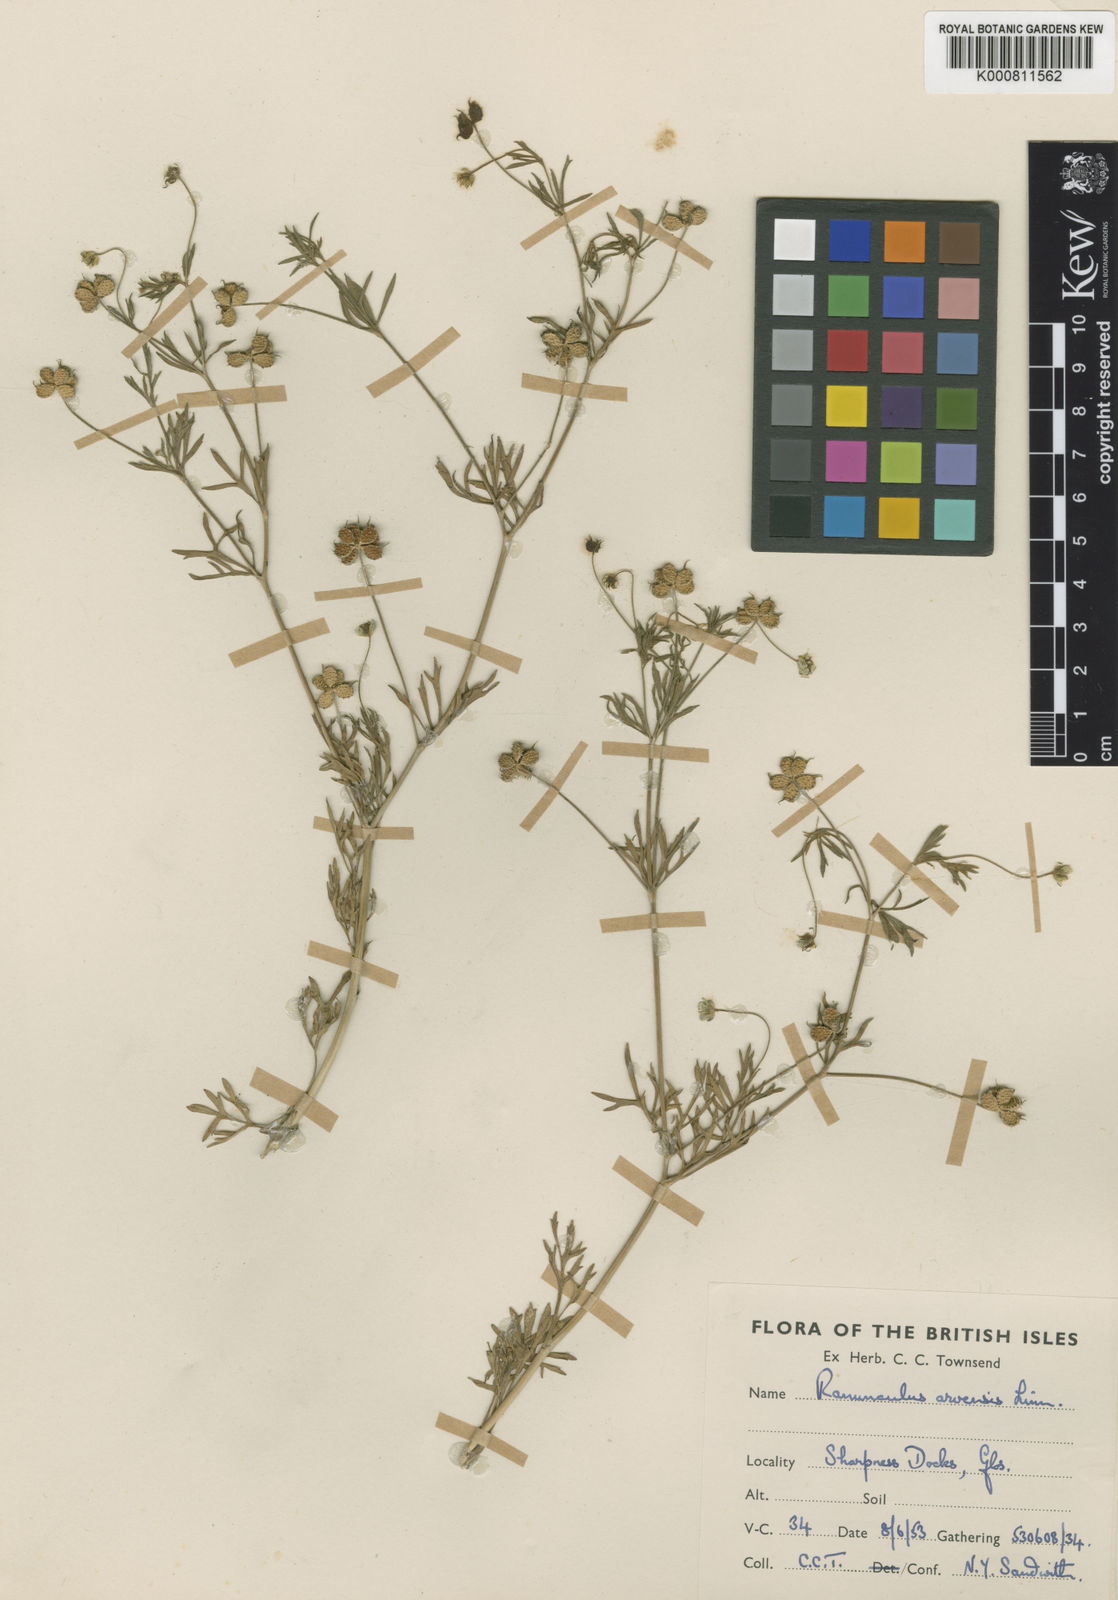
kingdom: Plantae
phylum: Tracheophyta
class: Magnoliopsida
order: Ranunculales
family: Ranunculaceae
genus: Ranunculus
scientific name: Ranunculus arvensis
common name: Corn buttercup
